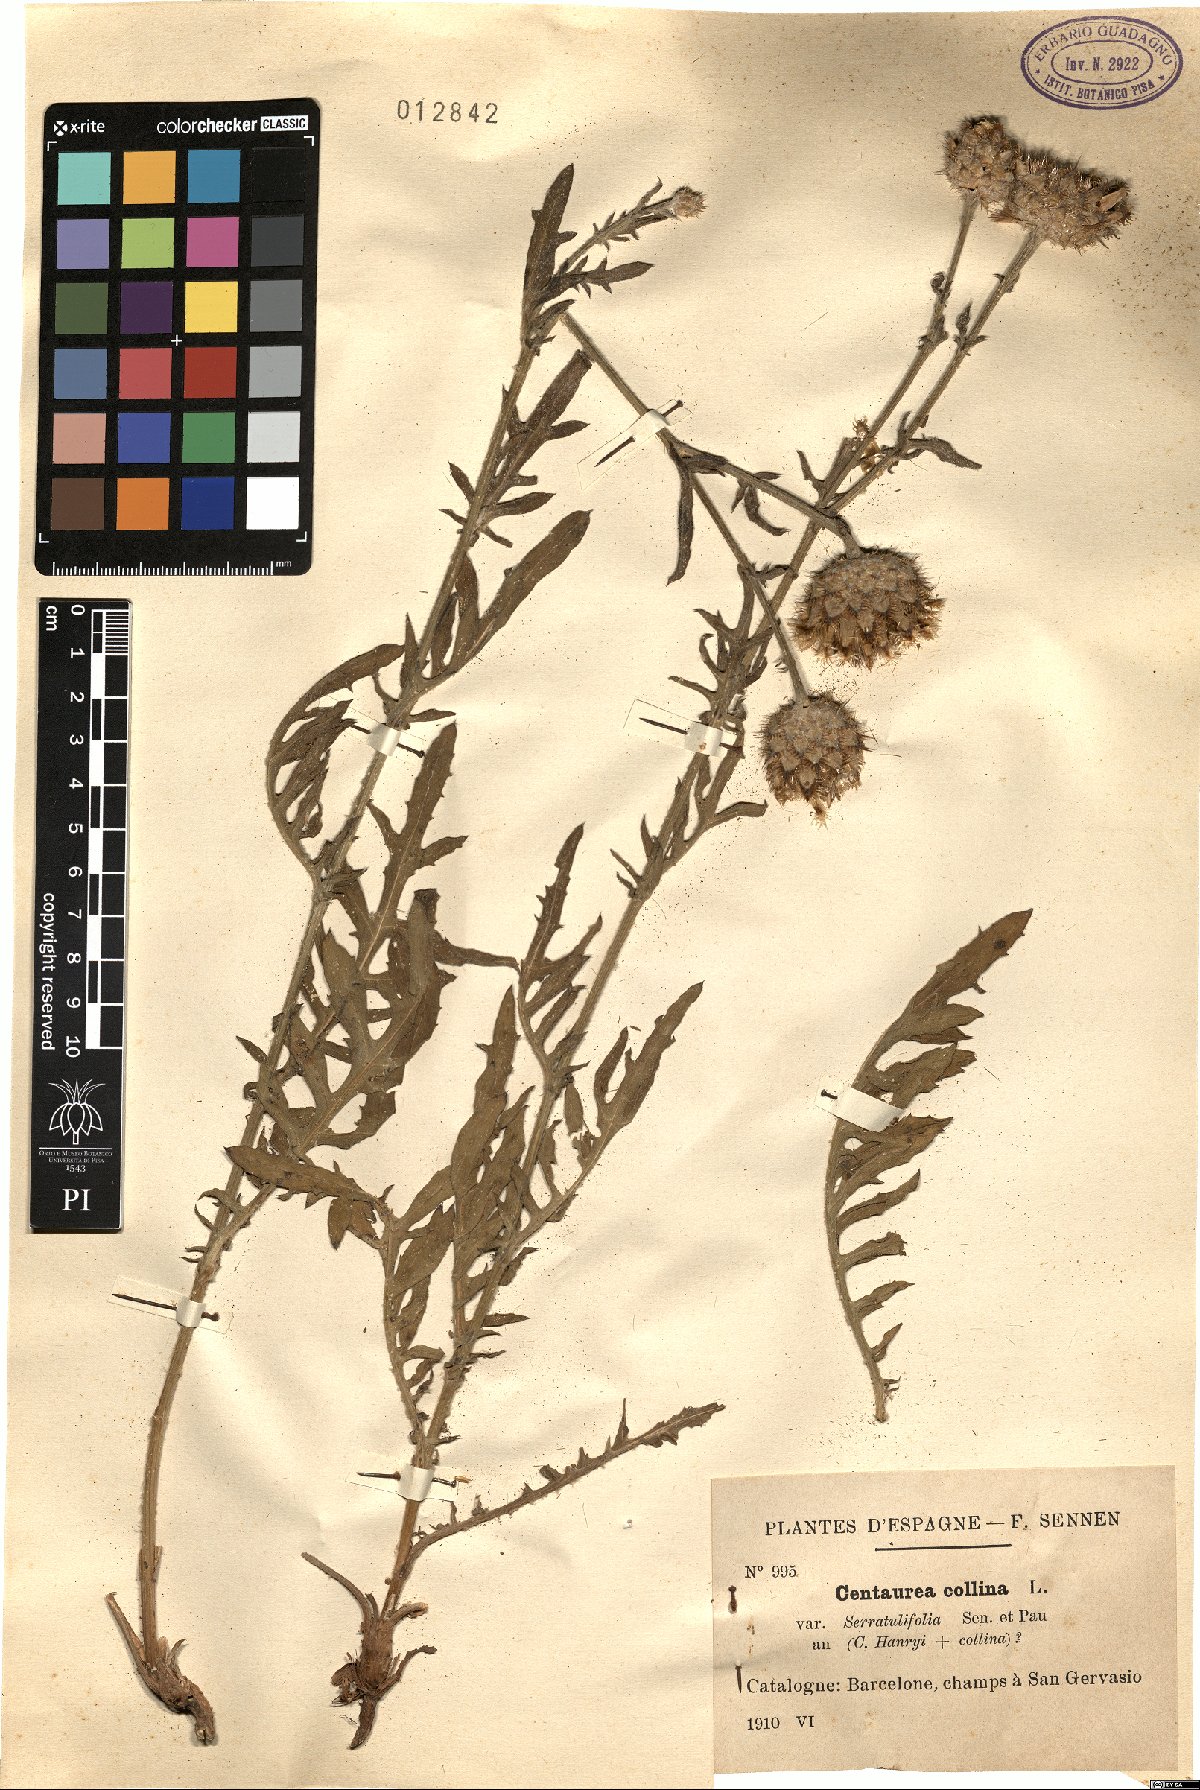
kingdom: Plantae
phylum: Tracheophyta
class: Magnoliopsida
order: Asterales
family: Asteraceae
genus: Centaurea
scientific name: Centaurea basilei
